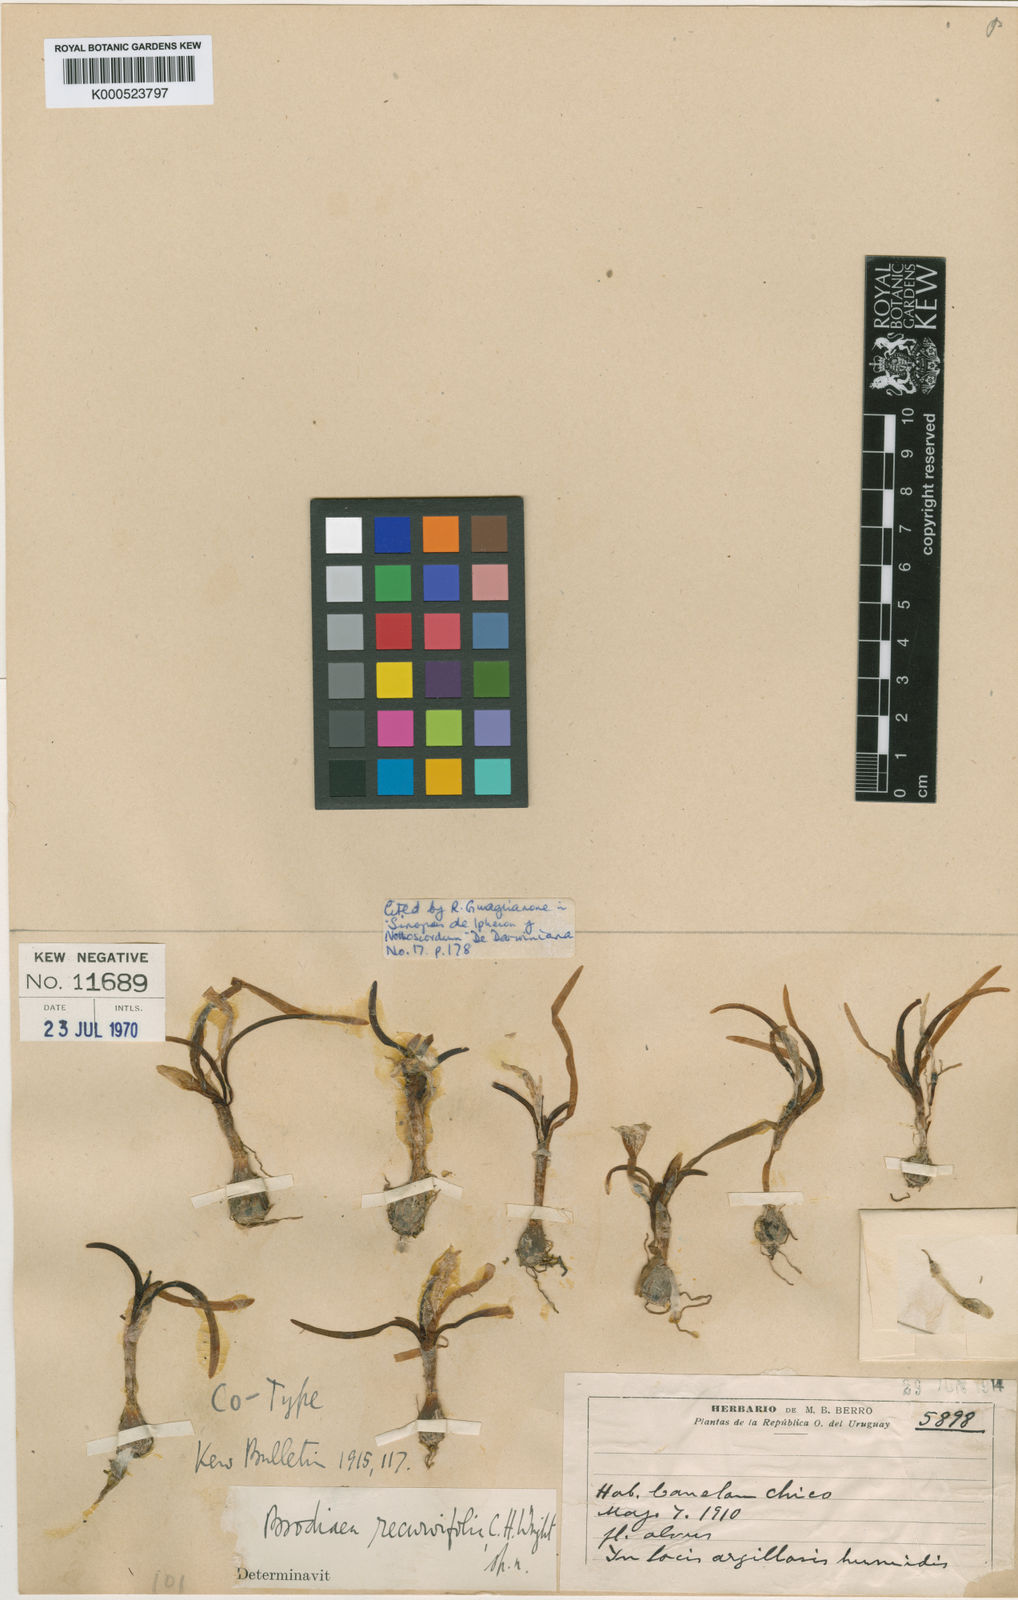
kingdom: Plantae
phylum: Tracheophyta
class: Liliopsida
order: Asparagales
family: Amaryllidaceae
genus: Tristagma
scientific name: Tristagma sessile
